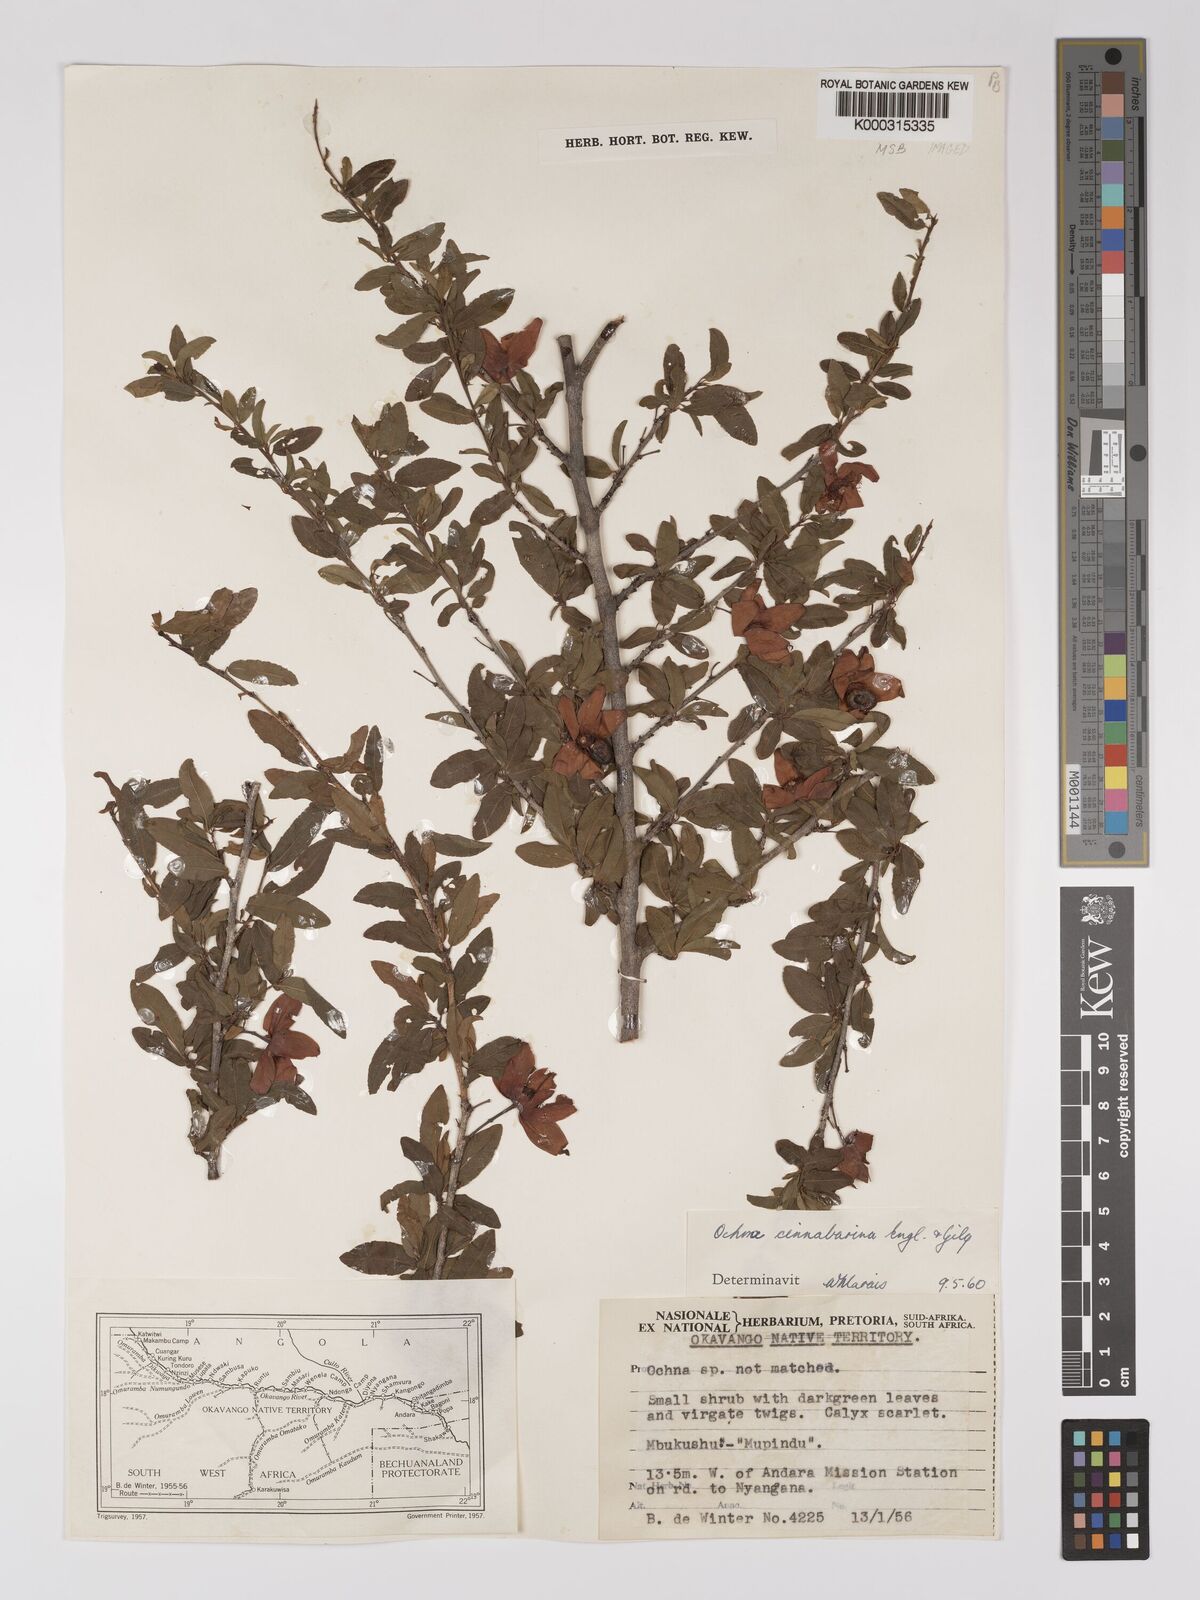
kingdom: Plantae
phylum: Tracheophyta
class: Magnoliopsida
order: Malpighiales
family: Ochnaceae
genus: Ochna
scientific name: Ochna cinnabarina
